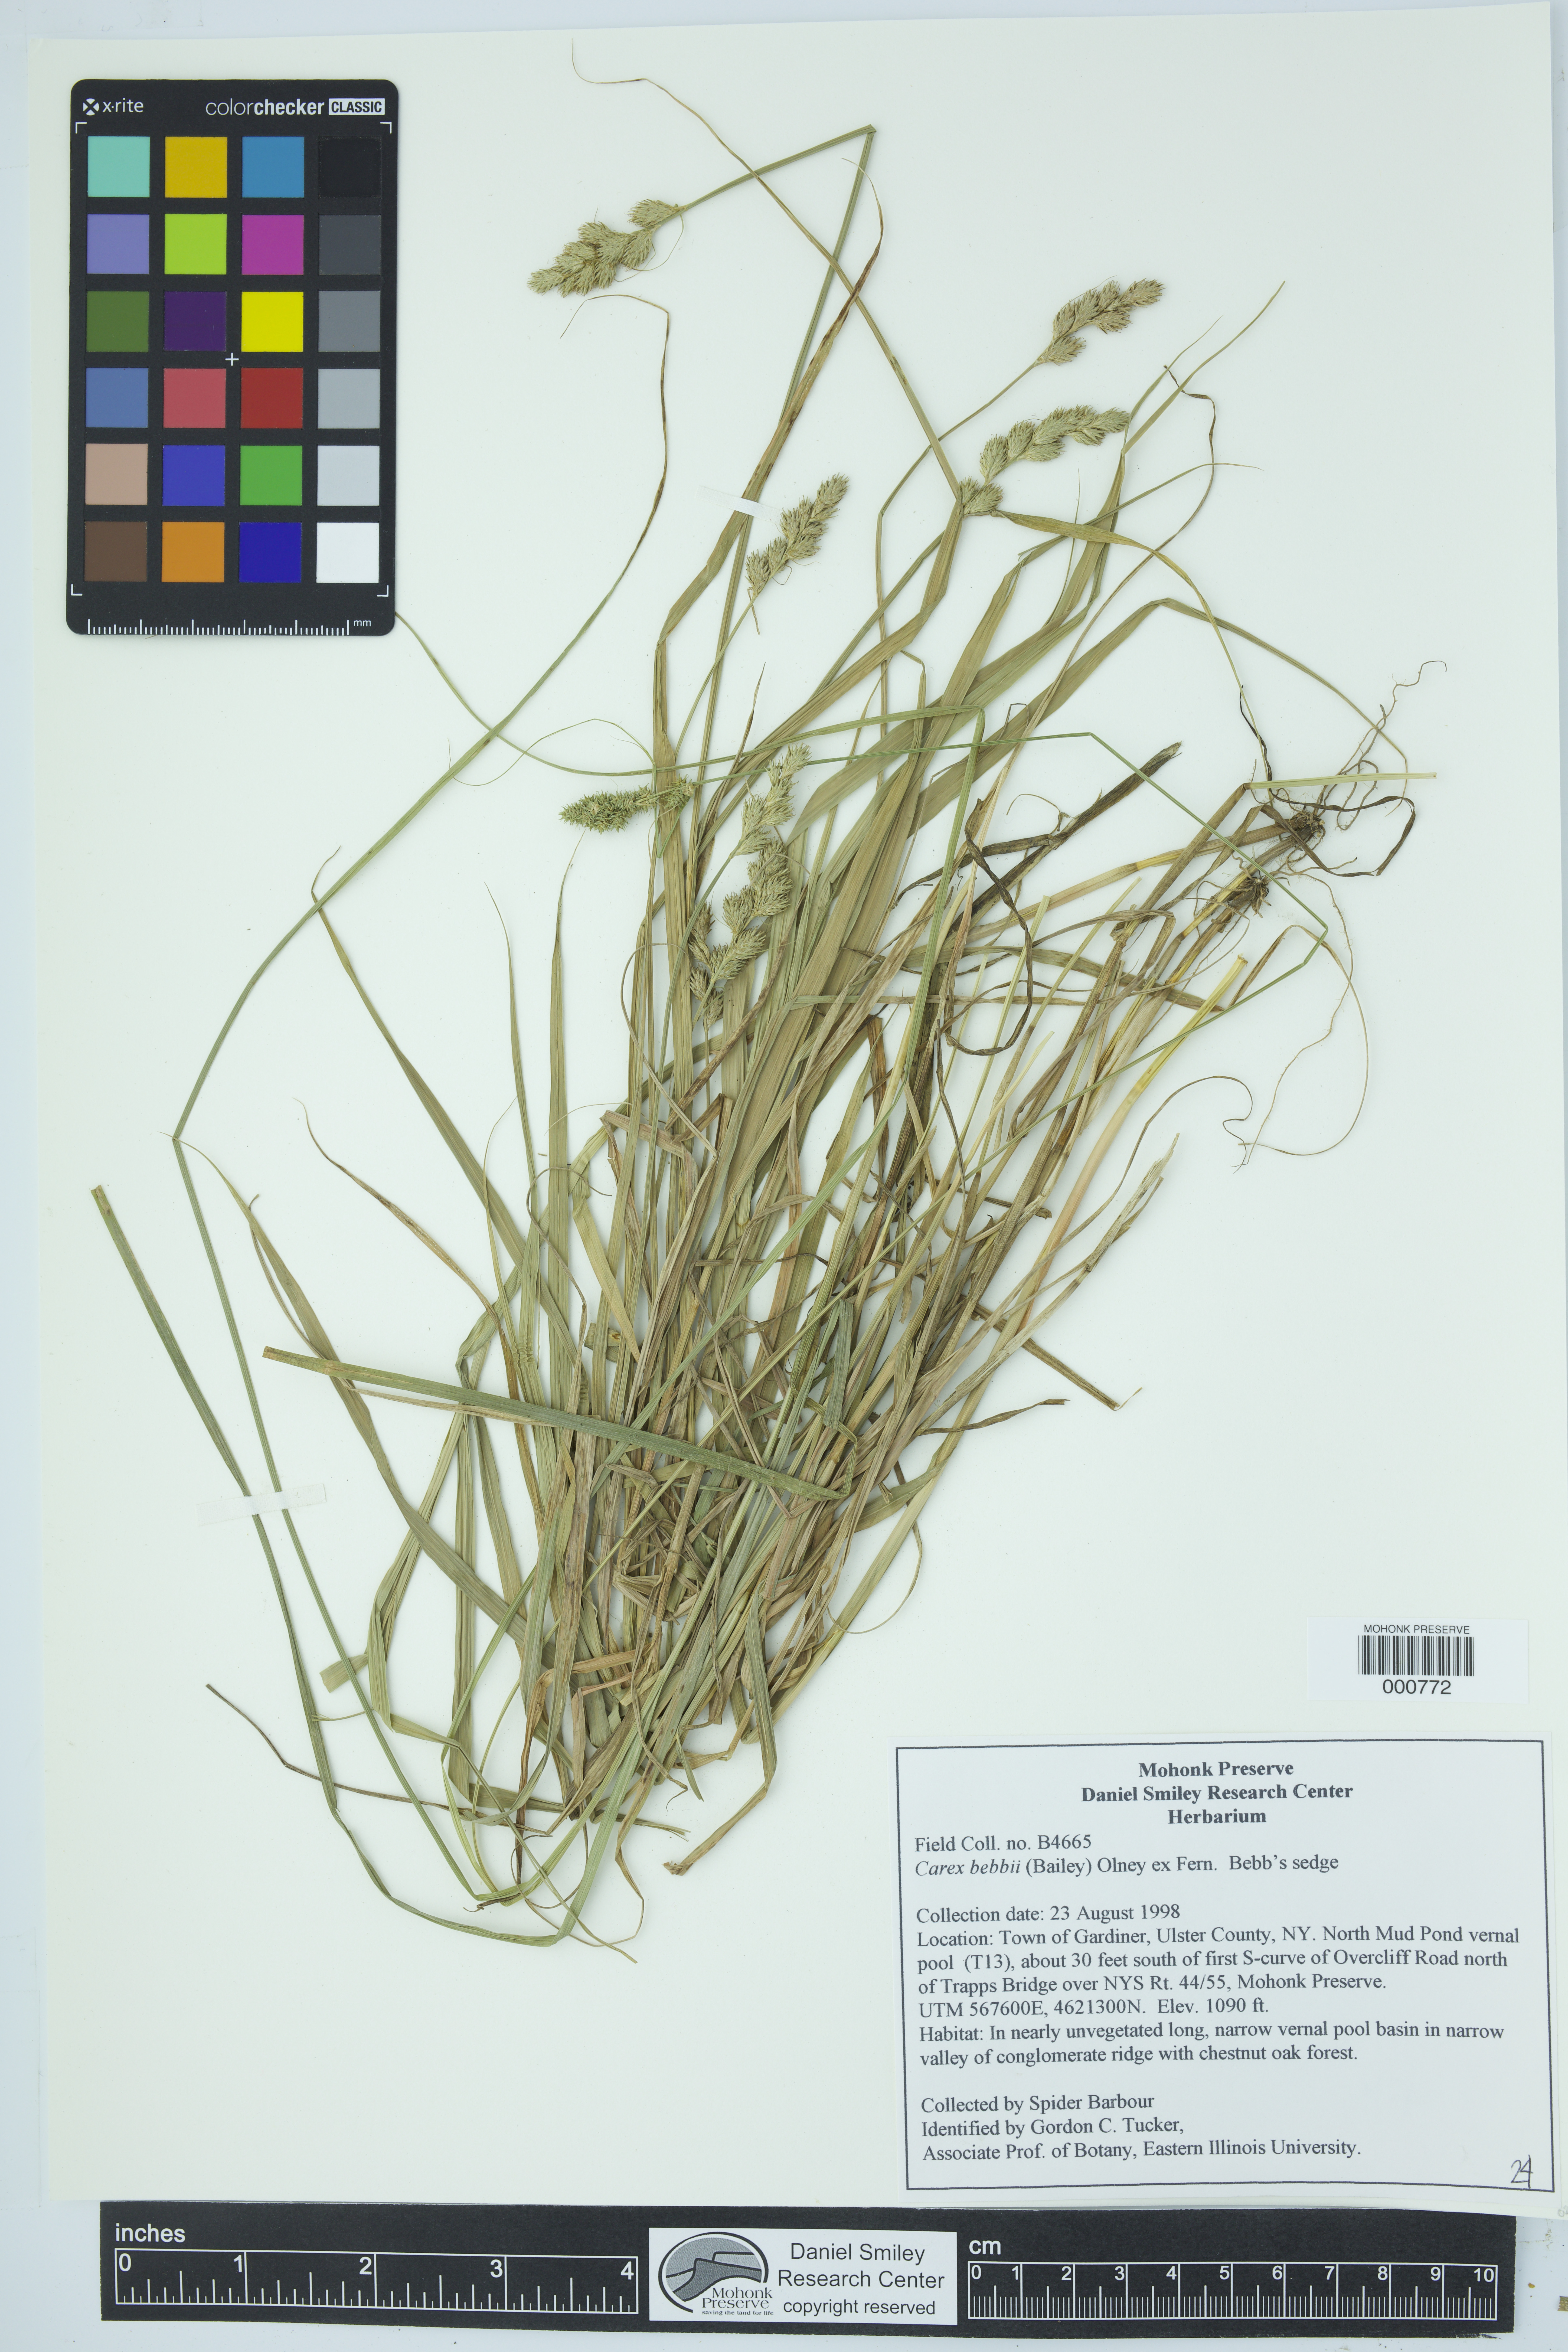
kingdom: Plantae
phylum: Tracheophyta
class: Liliopsida
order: Poales
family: Cyperaceae
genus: Carex
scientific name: Carex bebbii
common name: Bebb's sedge
